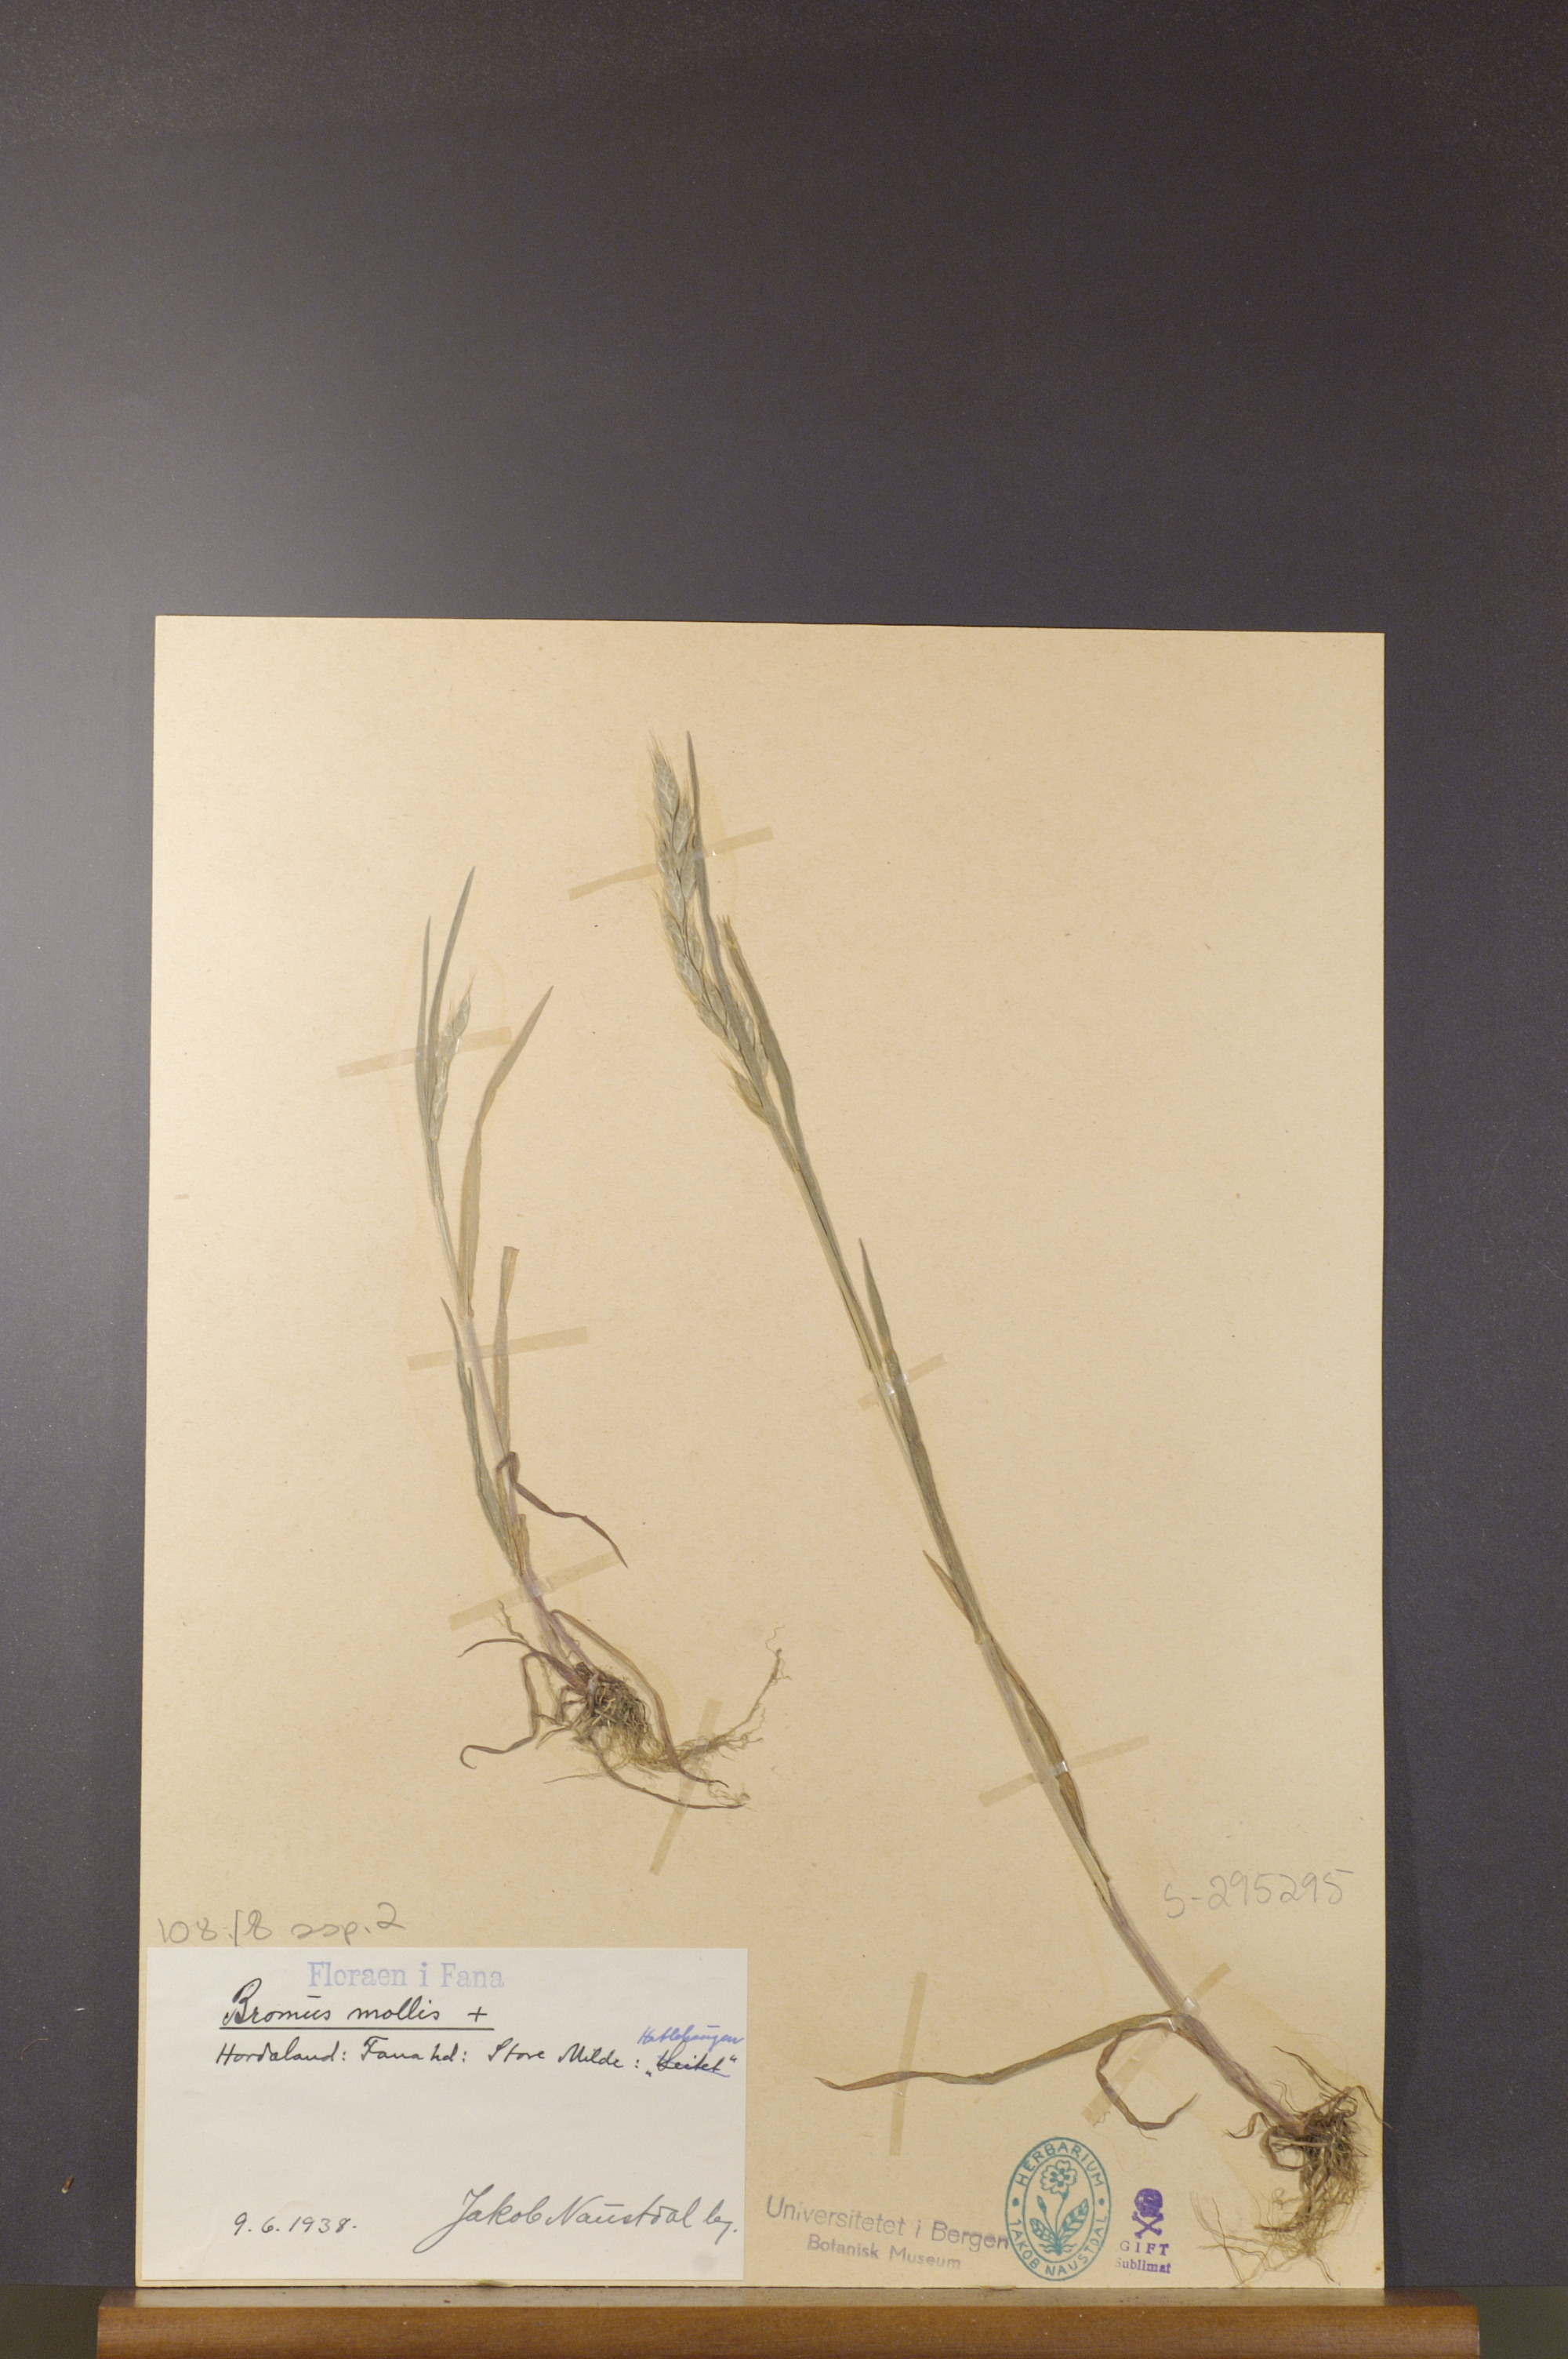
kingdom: Plantae
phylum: Tracheophyta
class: Liliopsida
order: Poales
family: Poaceae
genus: Bromus
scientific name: Bromus hordeaceus
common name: Soft brome
